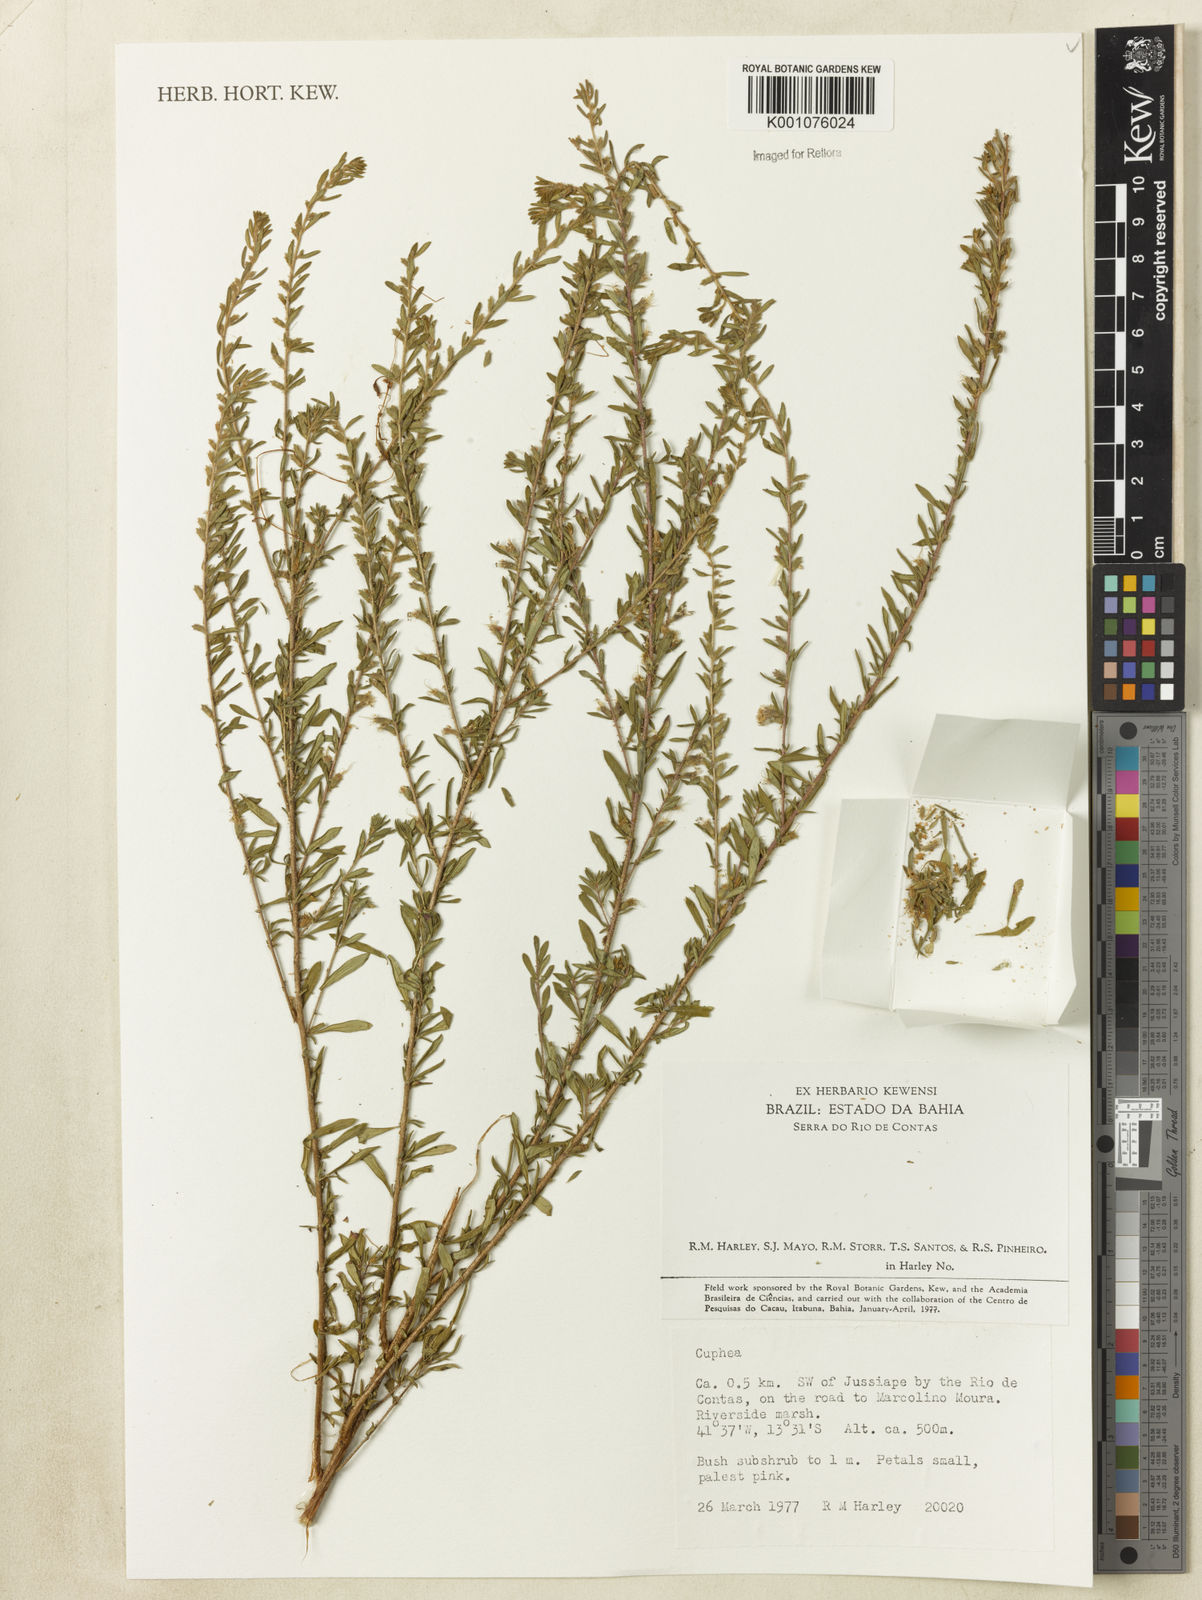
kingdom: Plantae
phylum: Tracheophyta
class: Magnoliopsida
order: Myrtales
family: Lythraceae
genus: Cuphea
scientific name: Cuphea
